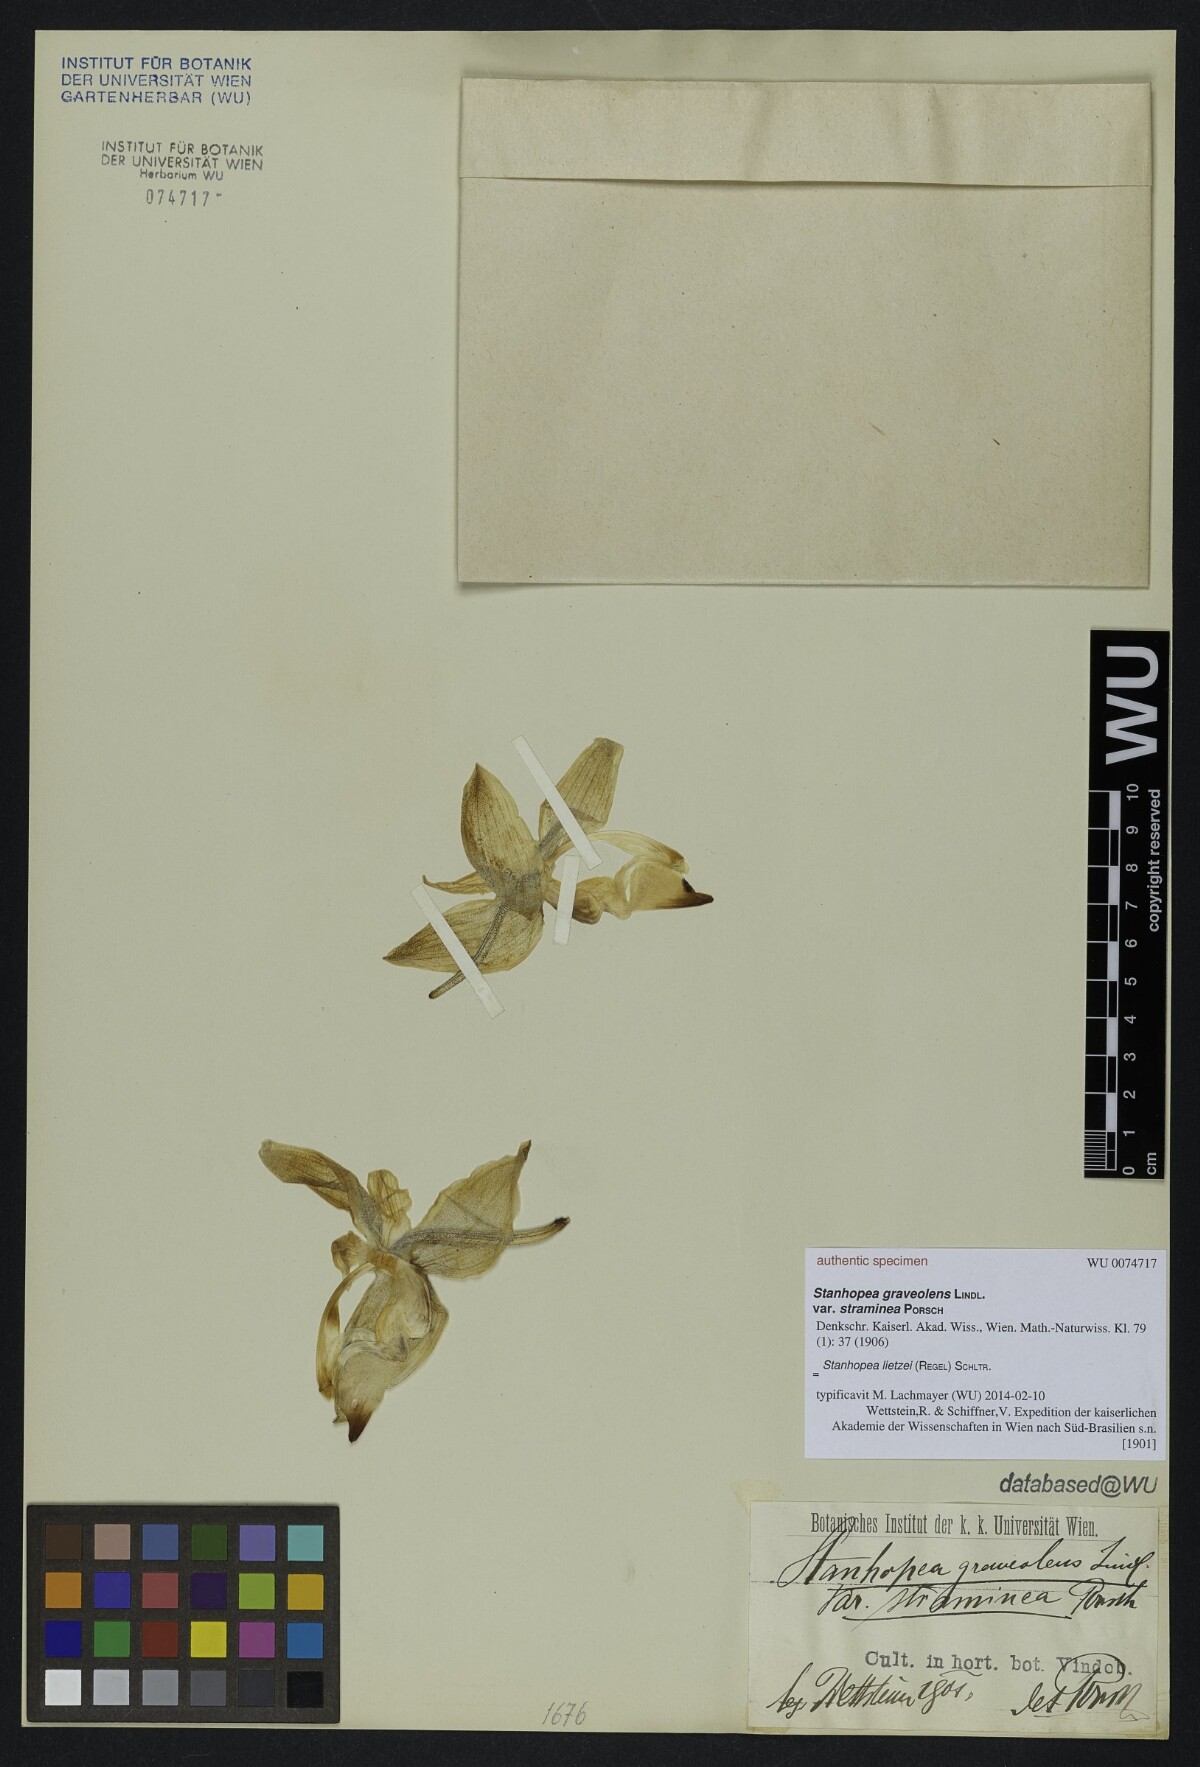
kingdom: Plantae
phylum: Tracheophyta
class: Liliopsida
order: Asparagales
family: Orchidaceae
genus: Stanhopea
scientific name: Stanhopea lietzei
